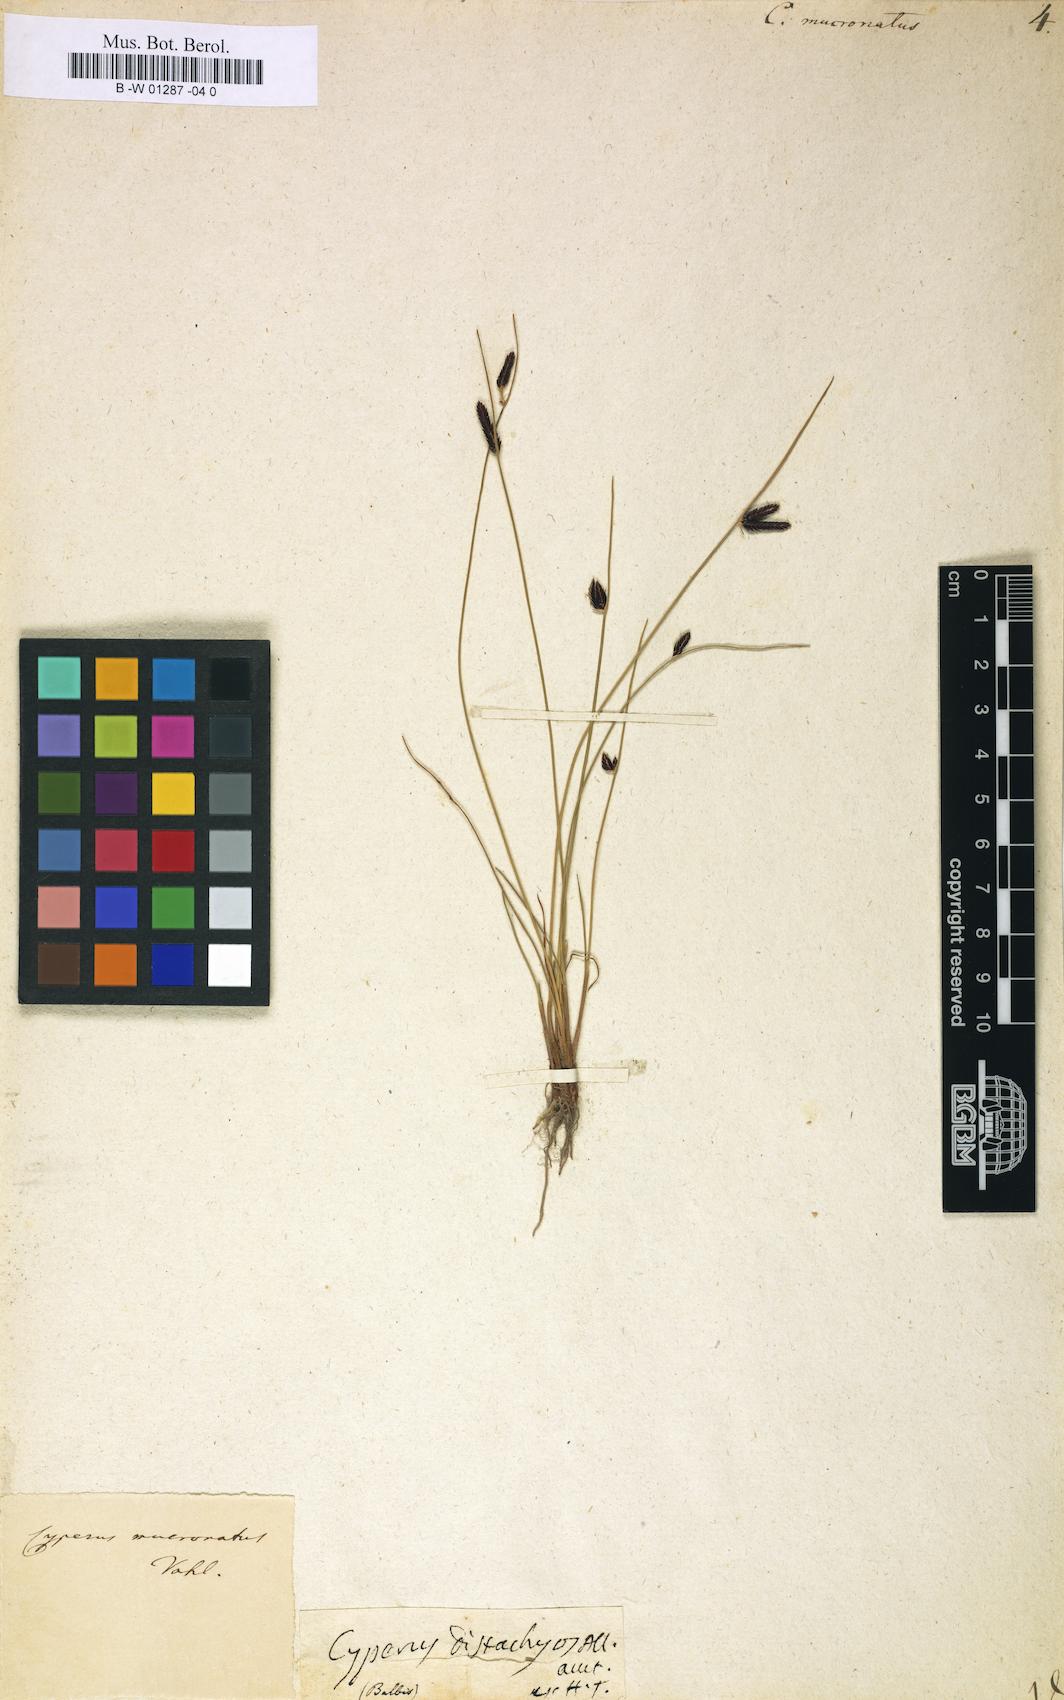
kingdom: Plantae
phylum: Tracheophyta
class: Liliopsida
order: Poales
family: Cyperaceae
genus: Cyperus
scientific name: Cyperus laevigatus
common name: Smooth flat sedge
